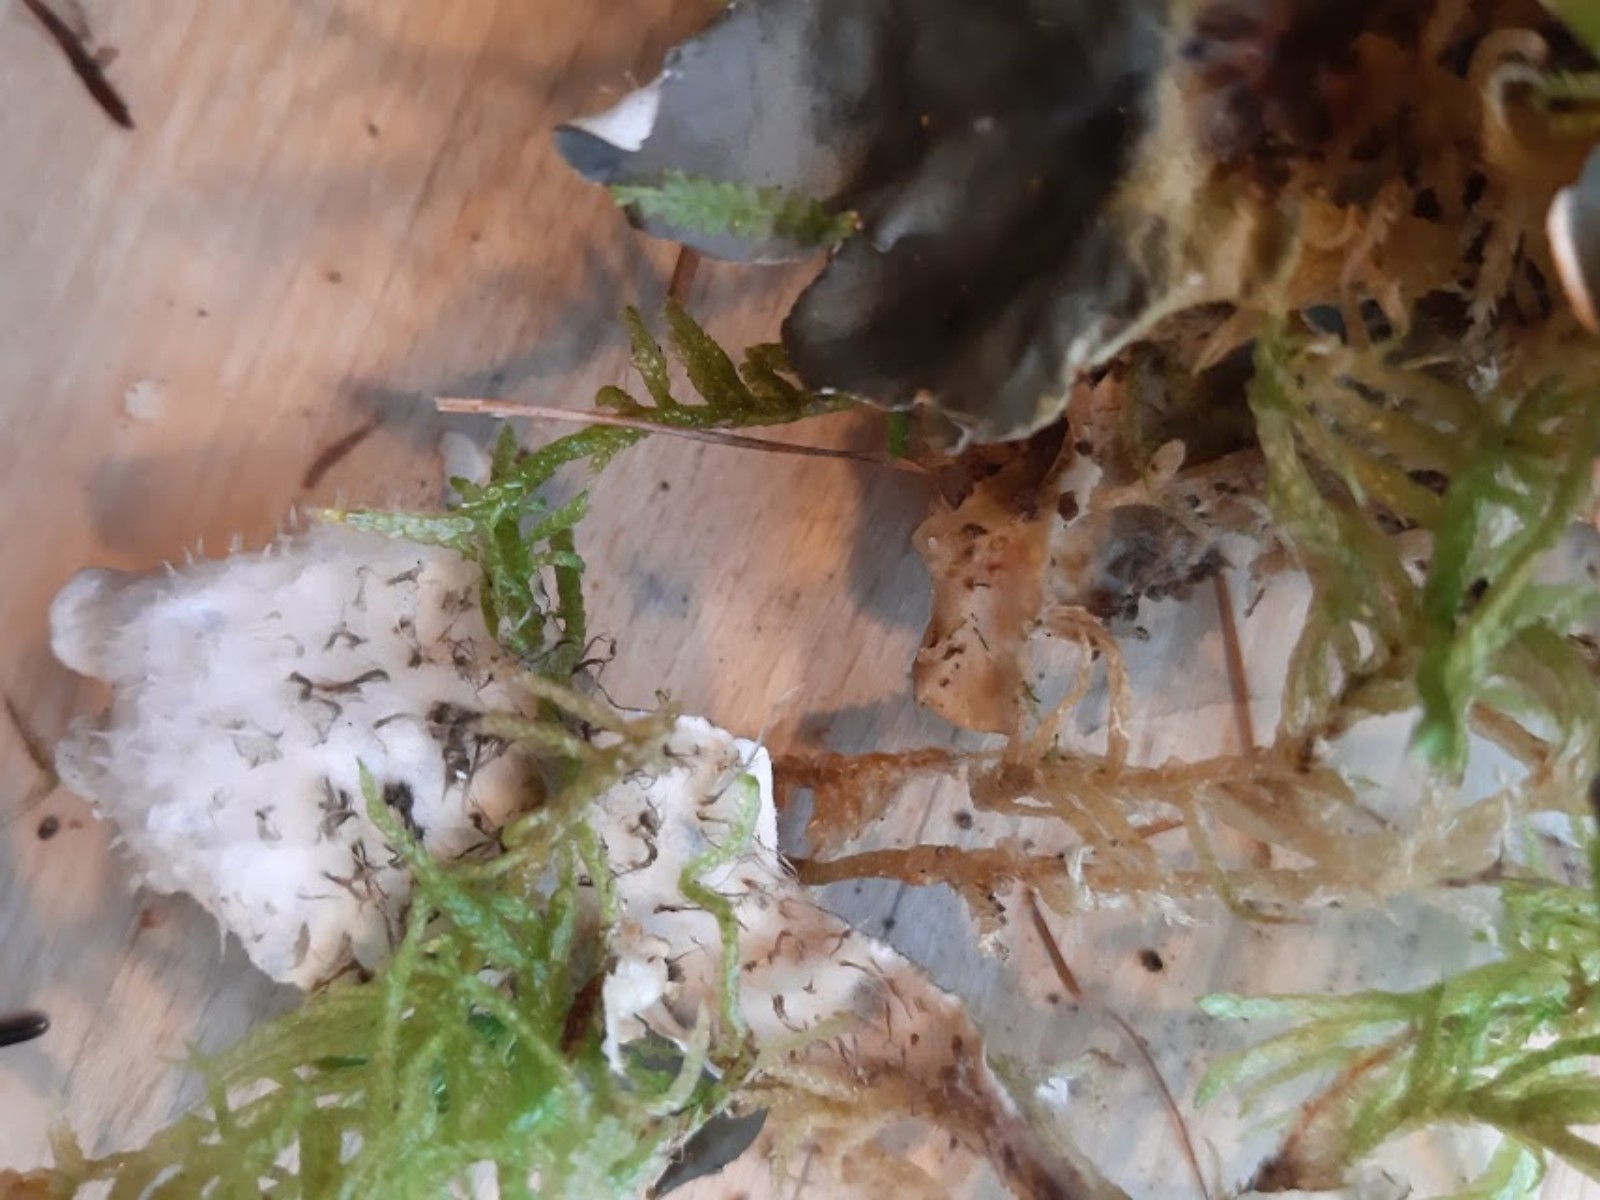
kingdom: Fungi
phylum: Ascomycota
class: Lecanoromycetes
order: Peltigerales
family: Peltigeraceae
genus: Peltigera
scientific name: Peltigera hymenina
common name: hinde-skjoldlav
